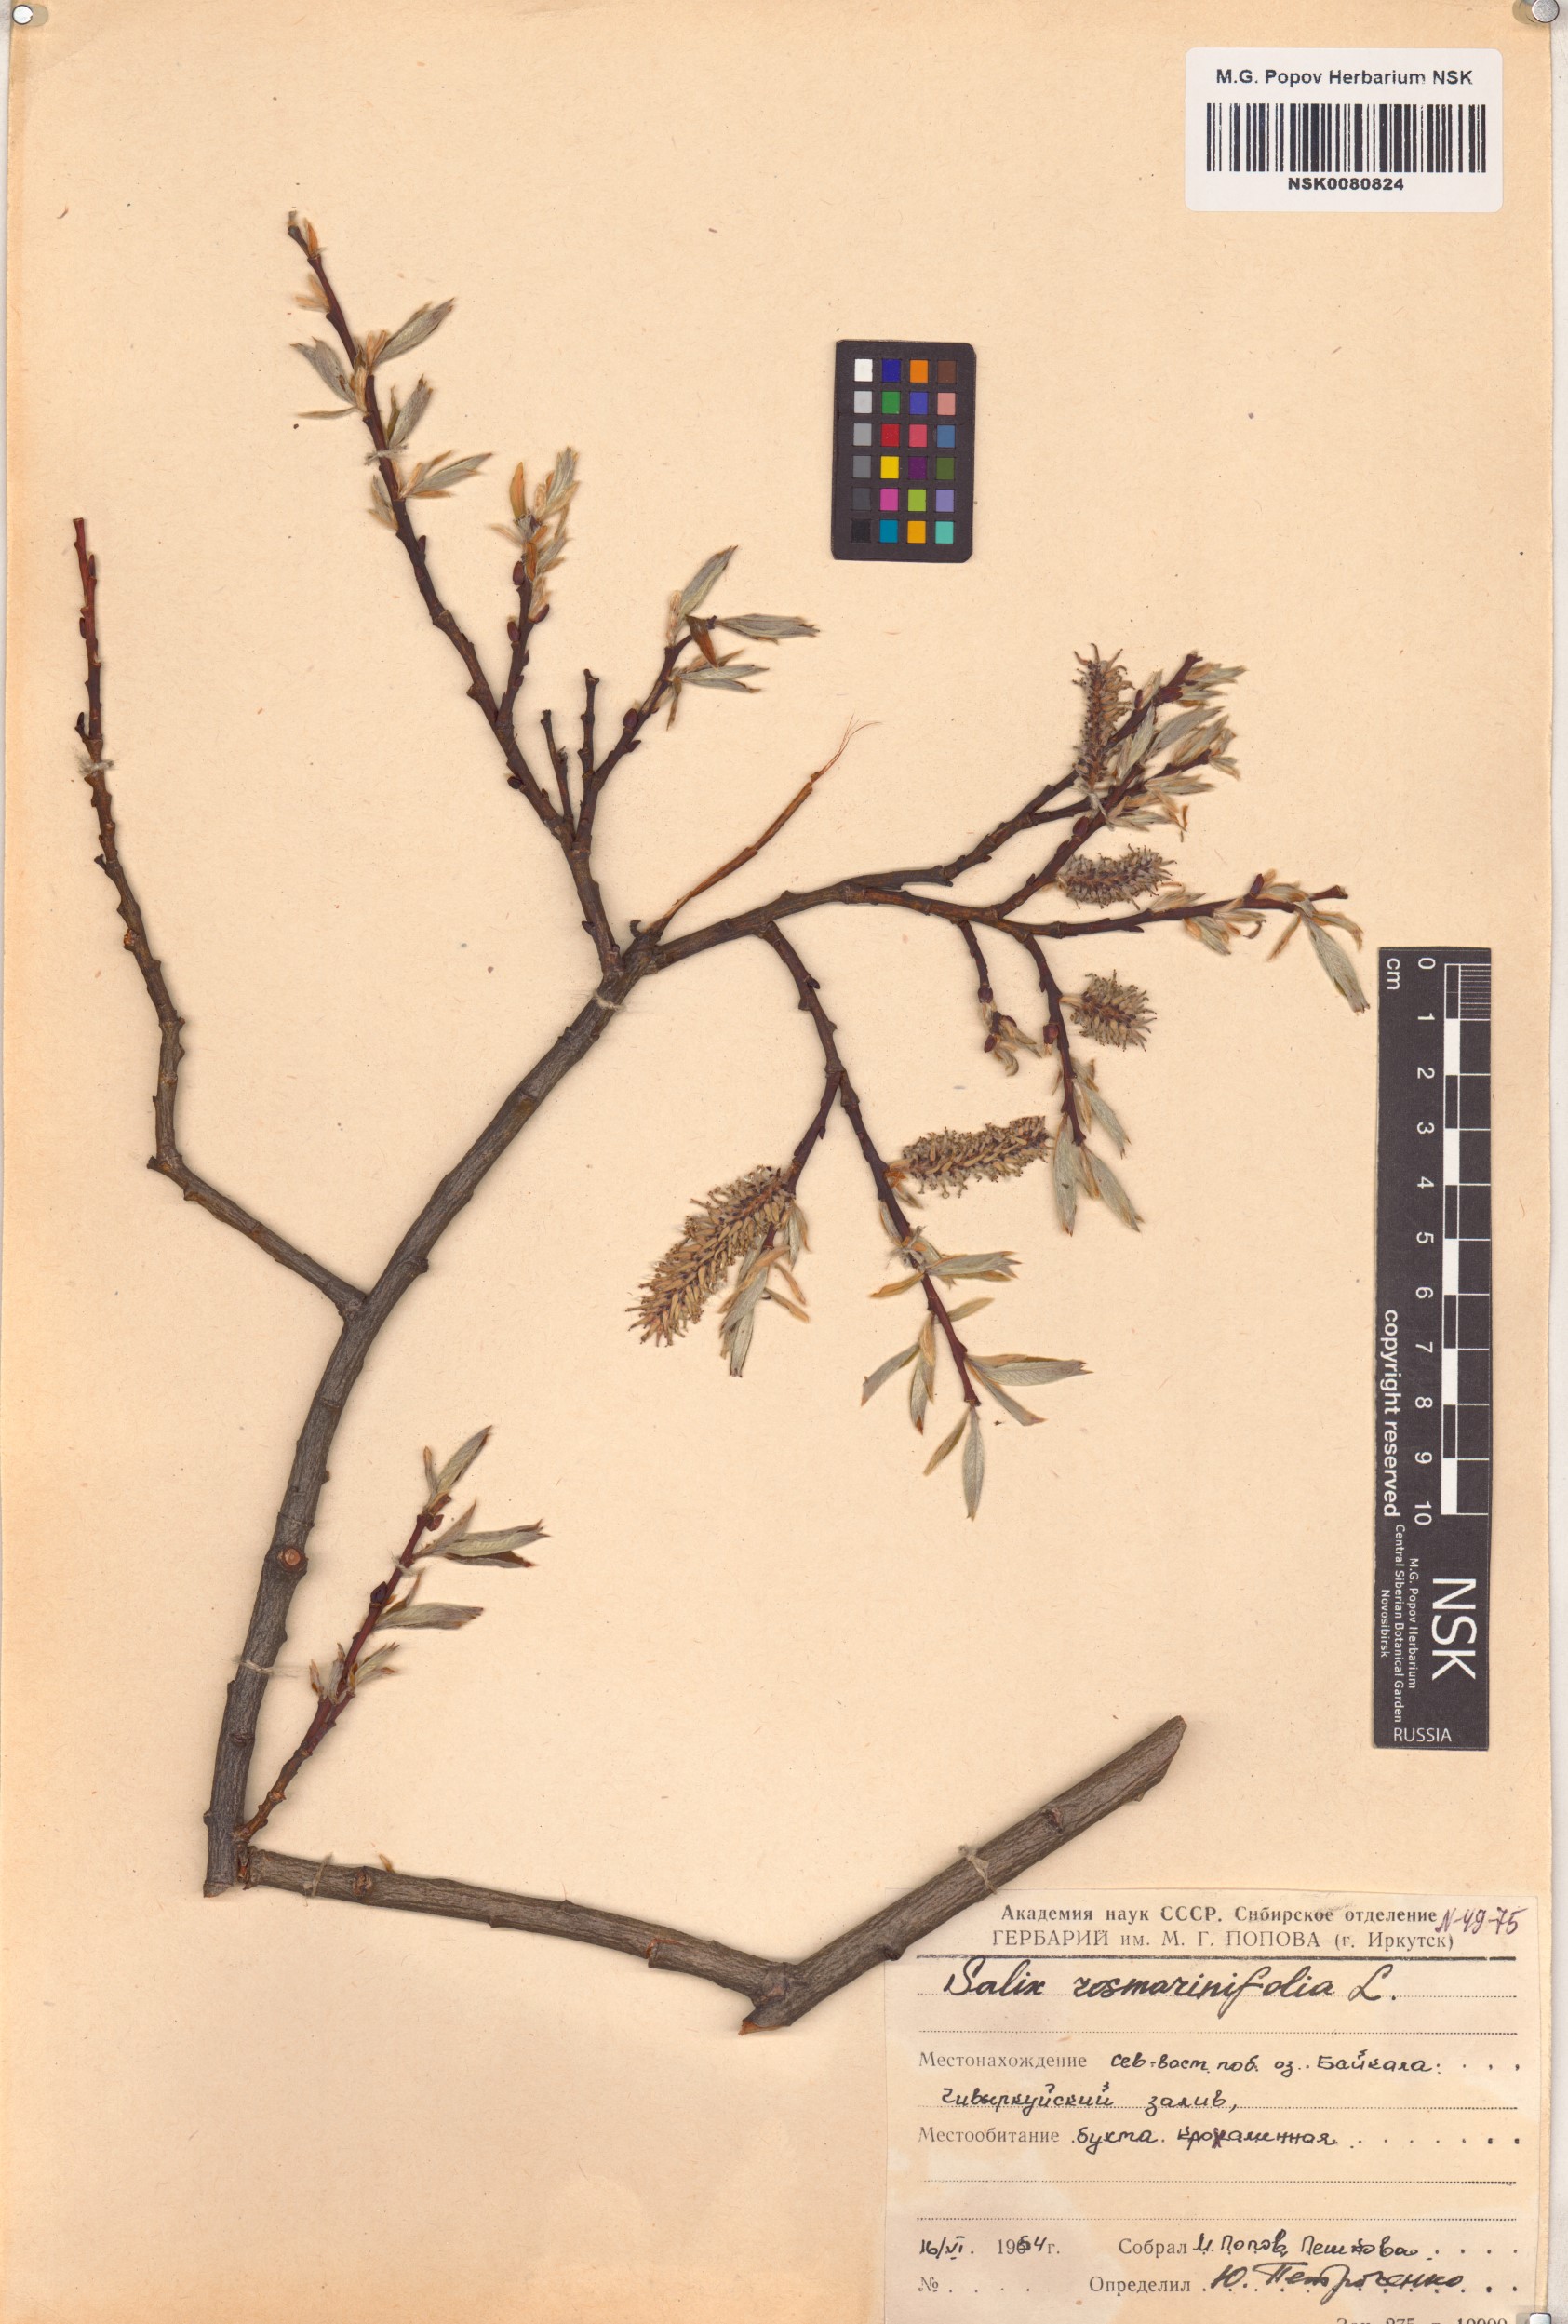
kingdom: Plantae
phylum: Tracheophyta
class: Magnoliopsida
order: Malpighiales
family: Salicaceae
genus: Salix
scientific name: Salix rosmarinifolia
